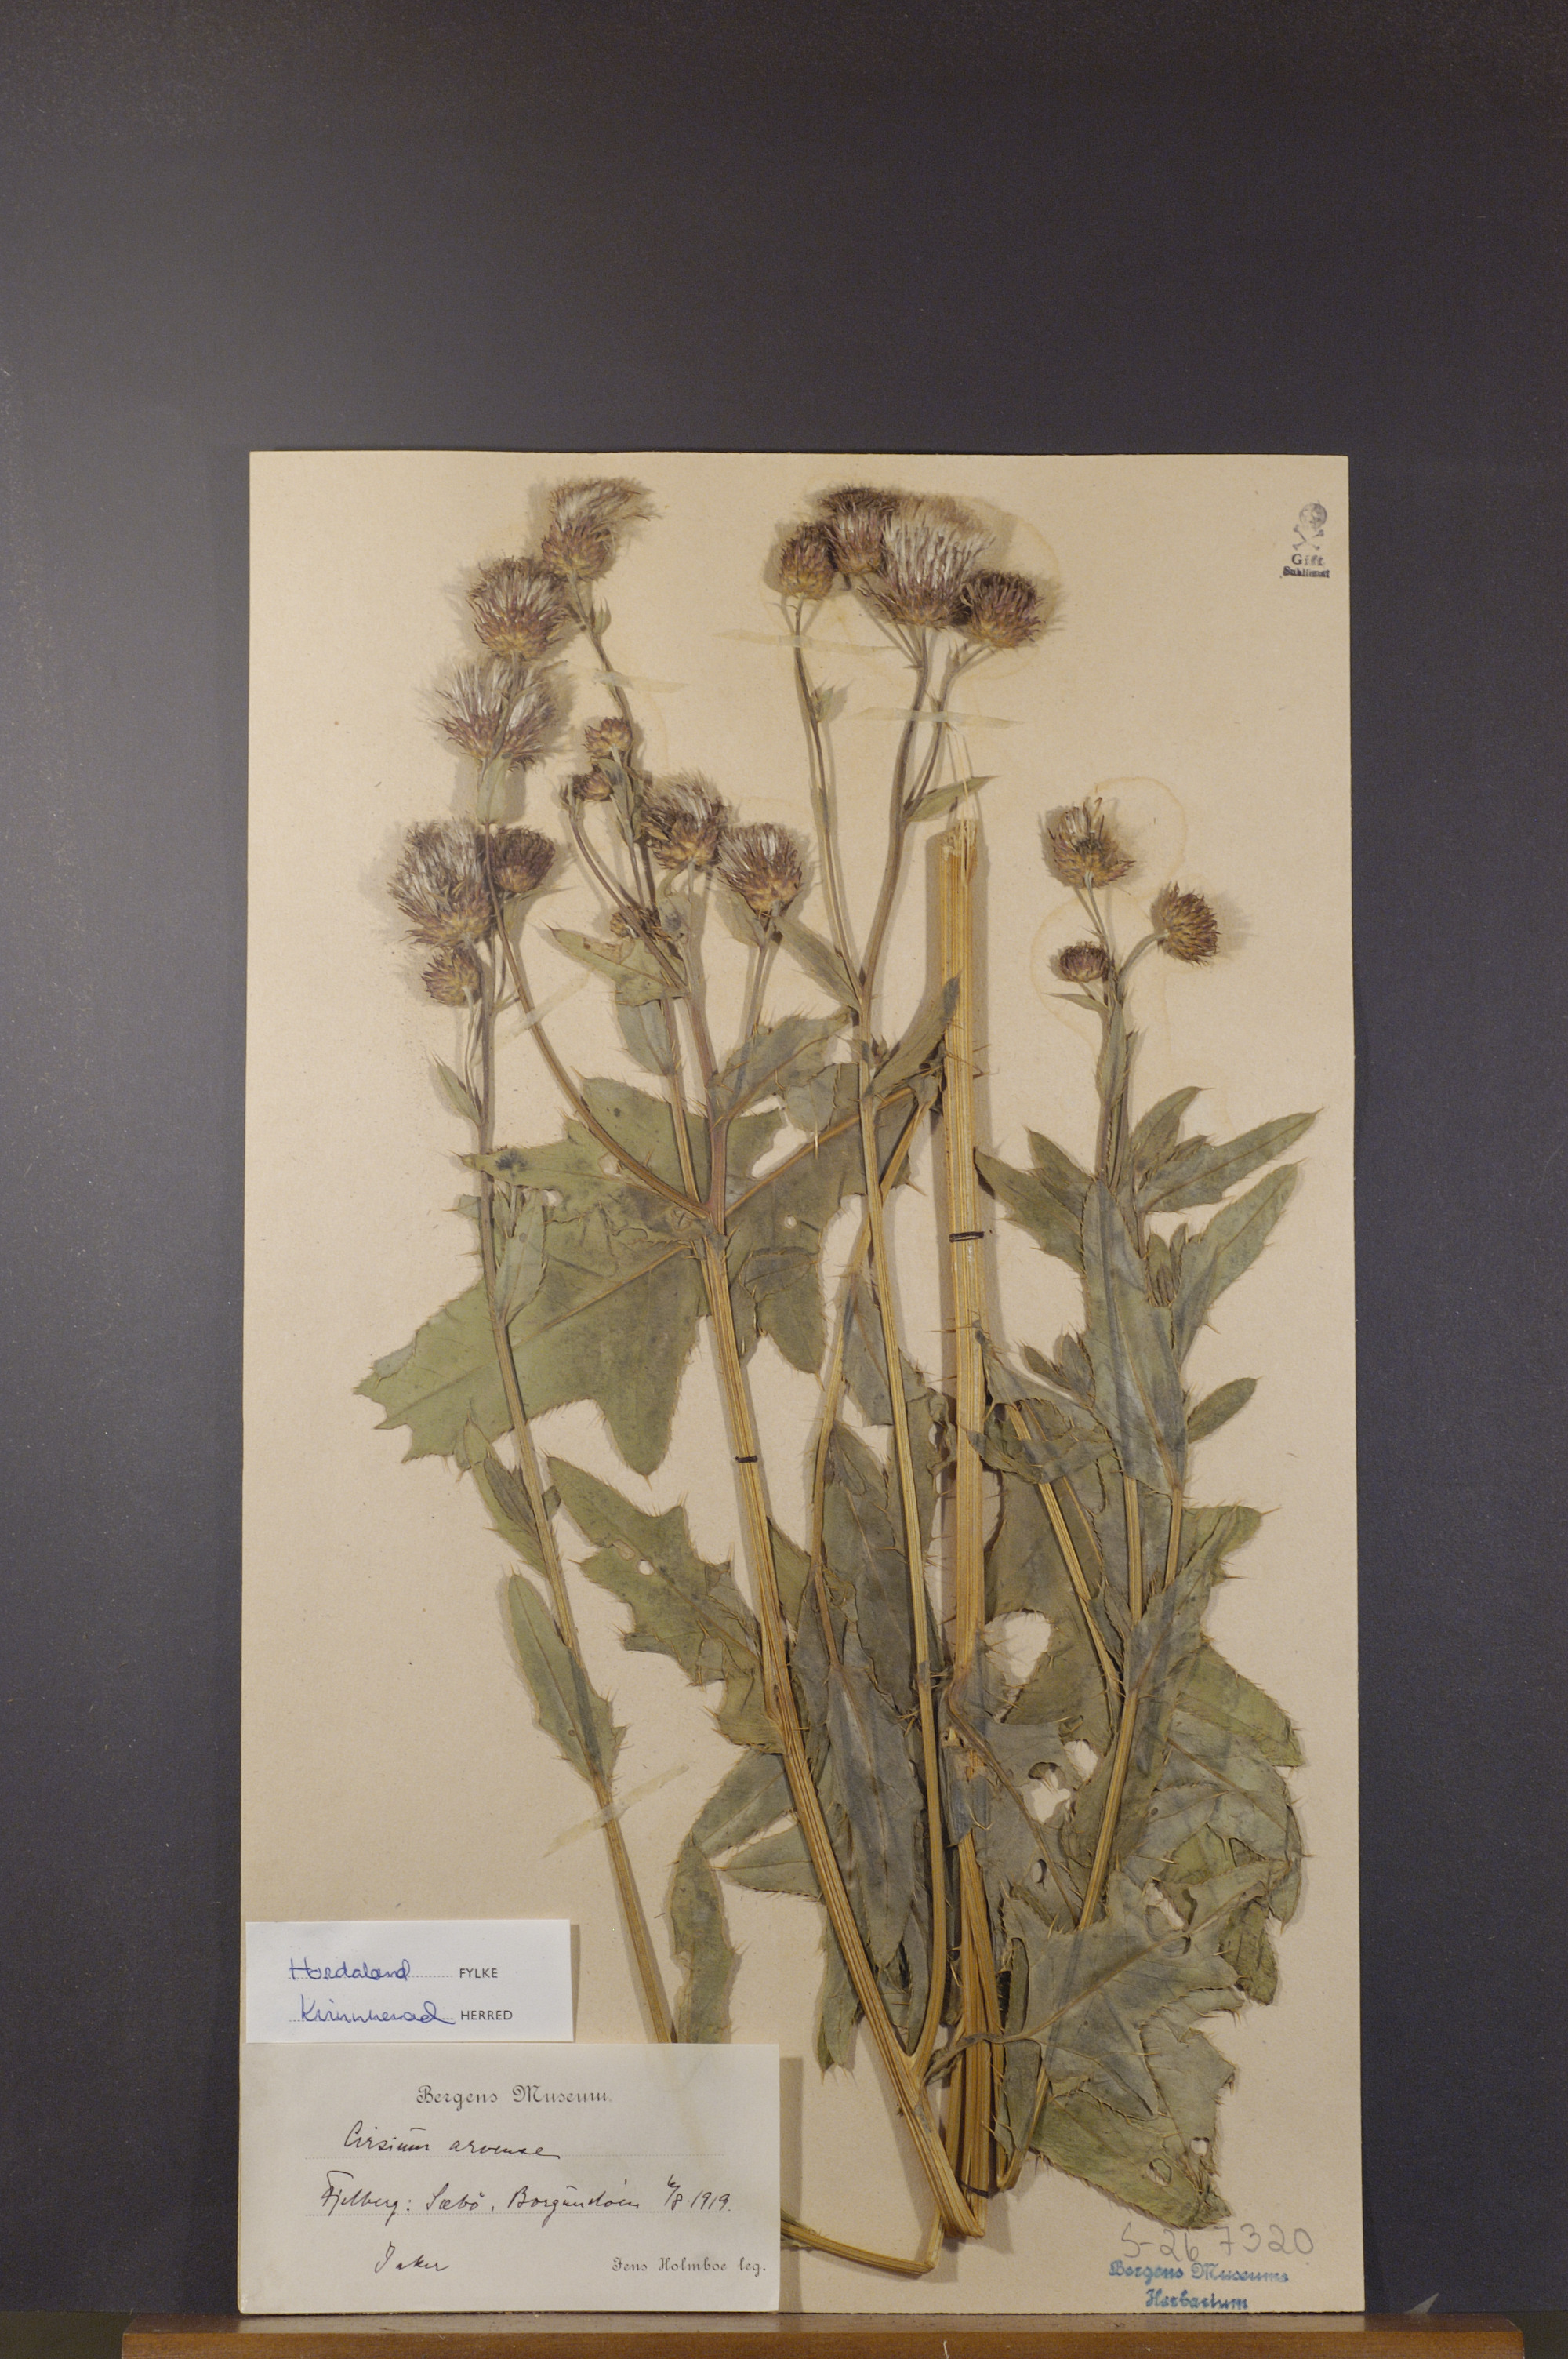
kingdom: Plantae
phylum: Tracheophyta
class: Magnoliopsida
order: Asterales
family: Asteraceae
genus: Cirsium
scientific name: Cirsium arvense
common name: Creeping thistle
